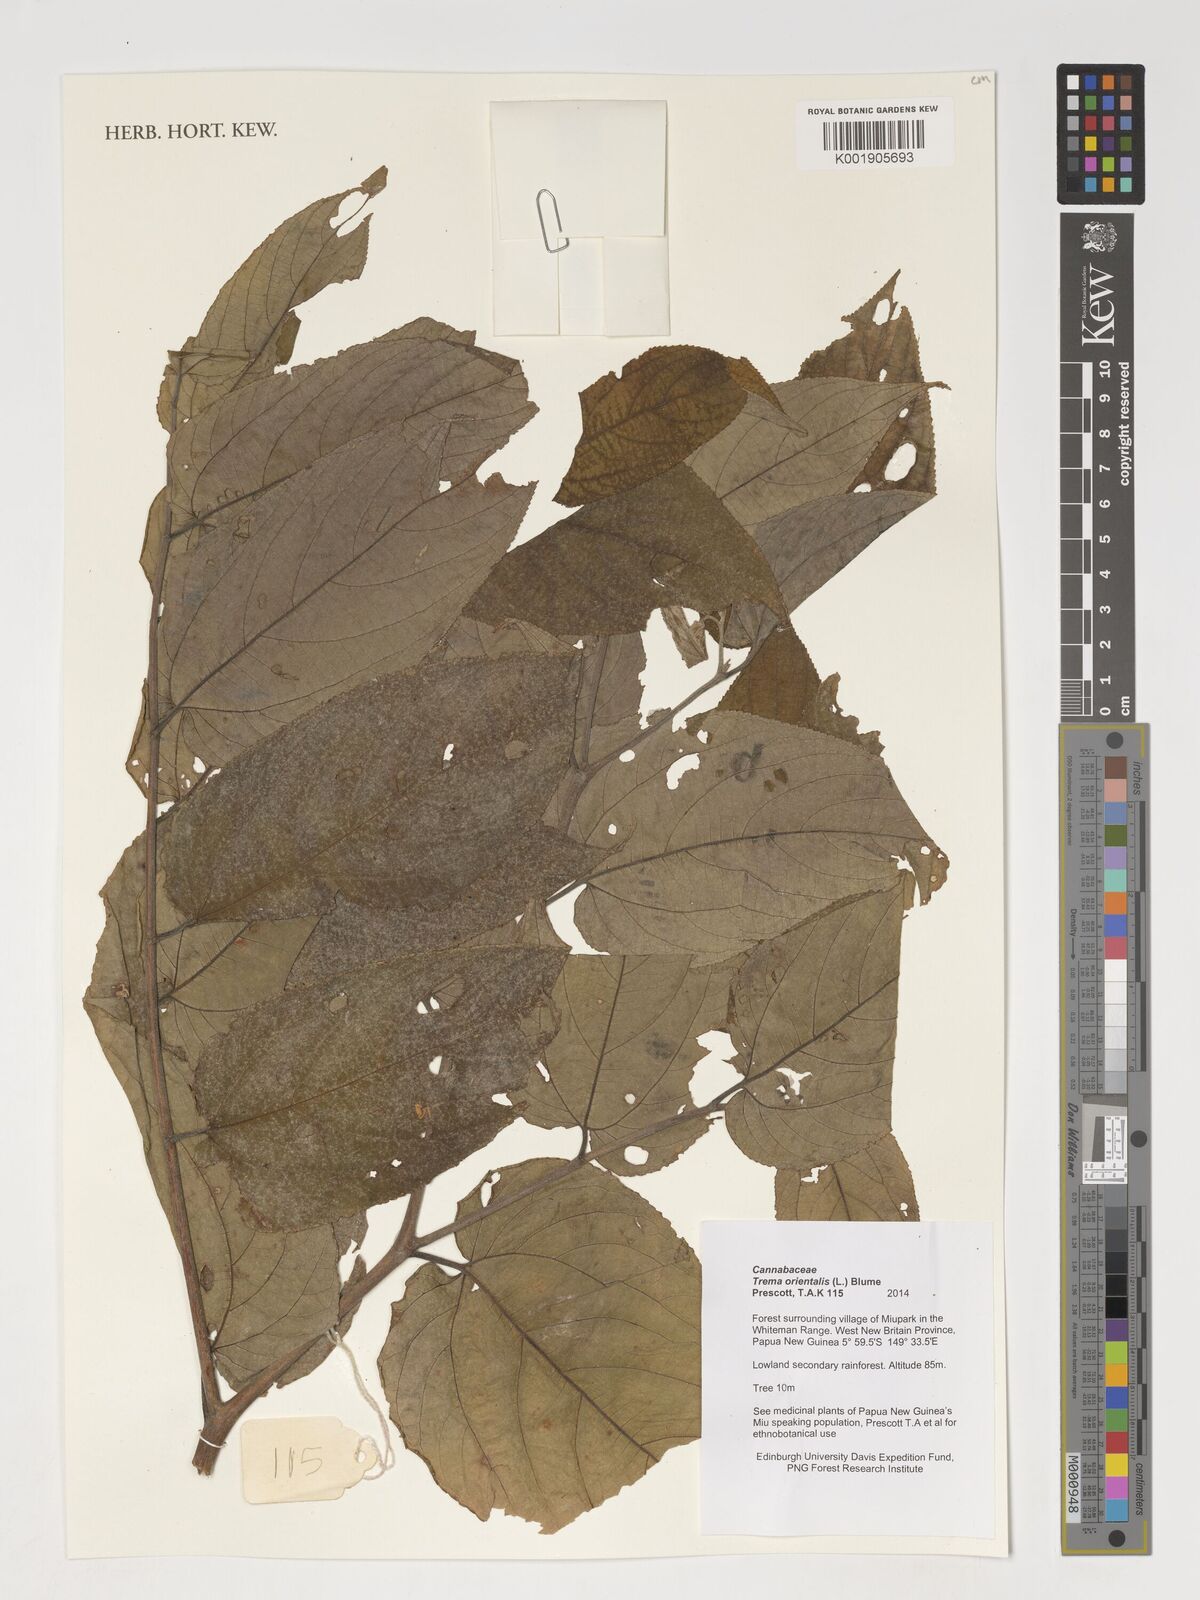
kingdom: Plantae
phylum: Tracheophyta
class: Magnoliopsida
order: Rosales
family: Cannabaceae
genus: Trema
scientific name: Trema orientale
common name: Indian charcoal tree
